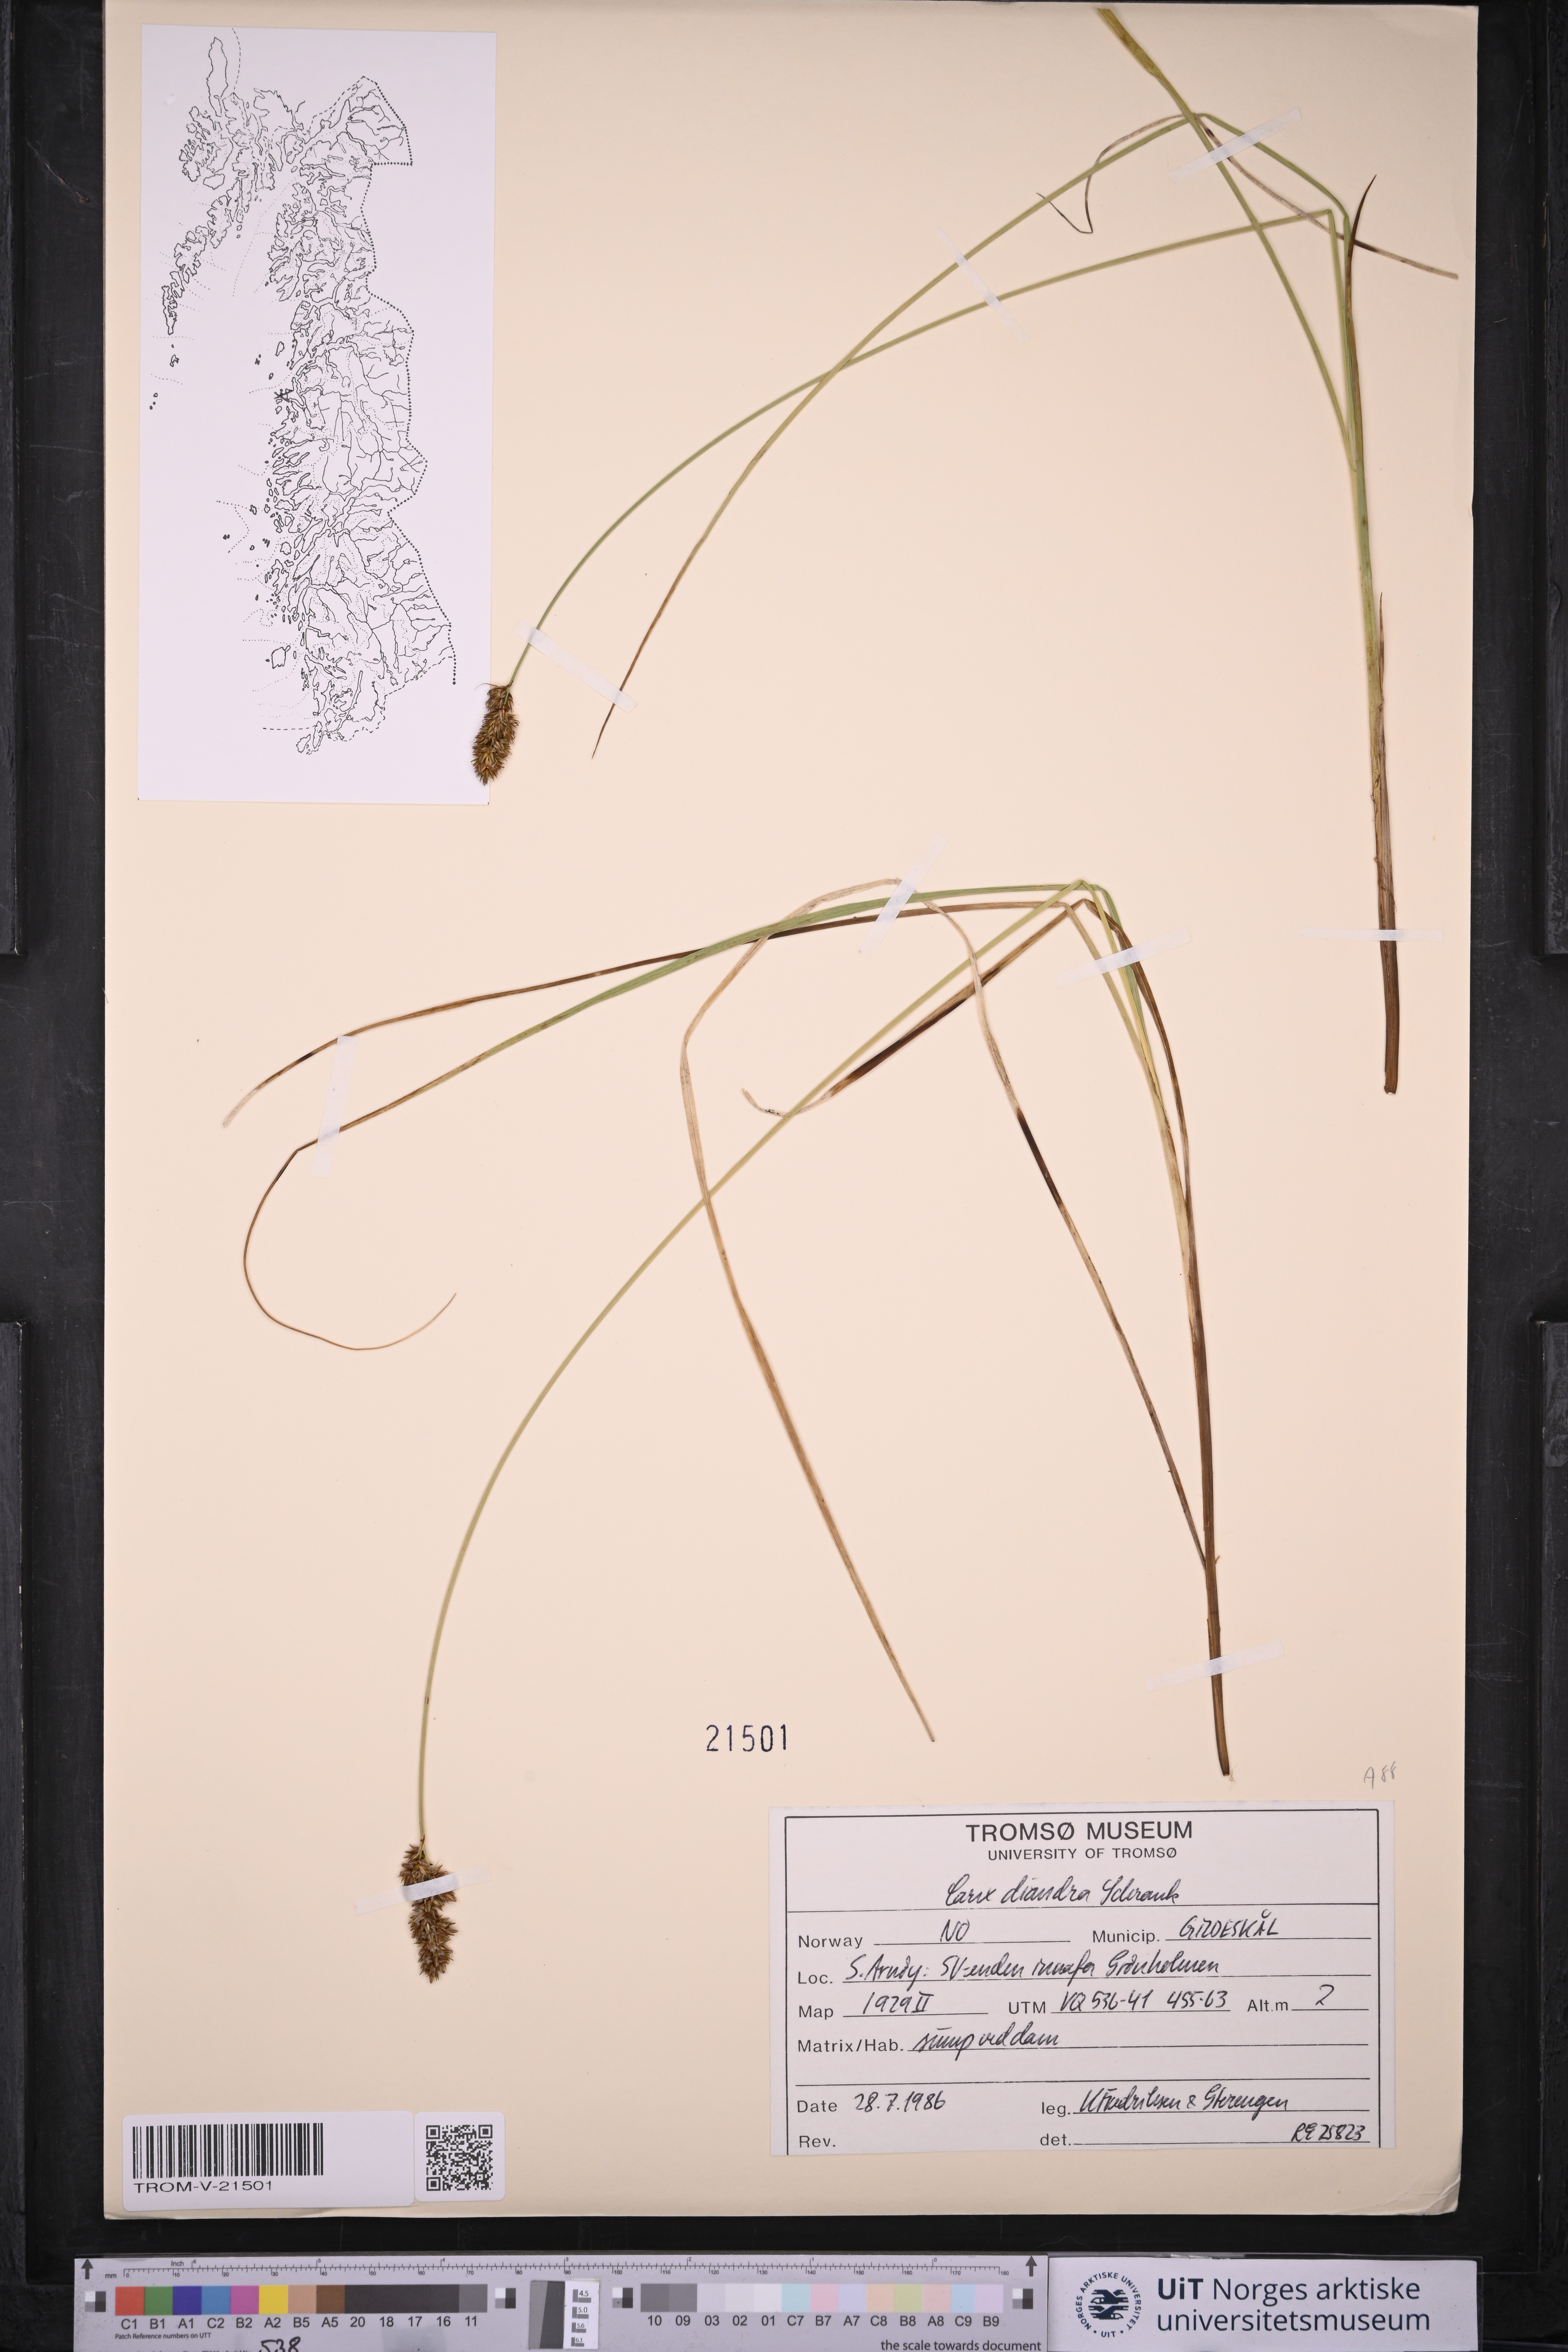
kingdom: Plantae
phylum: Tracheophyta
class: Liliopsida
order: Poales
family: Cyperaceae
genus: Carex
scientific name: Carex diandra
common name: Lesser tussock-sedge
